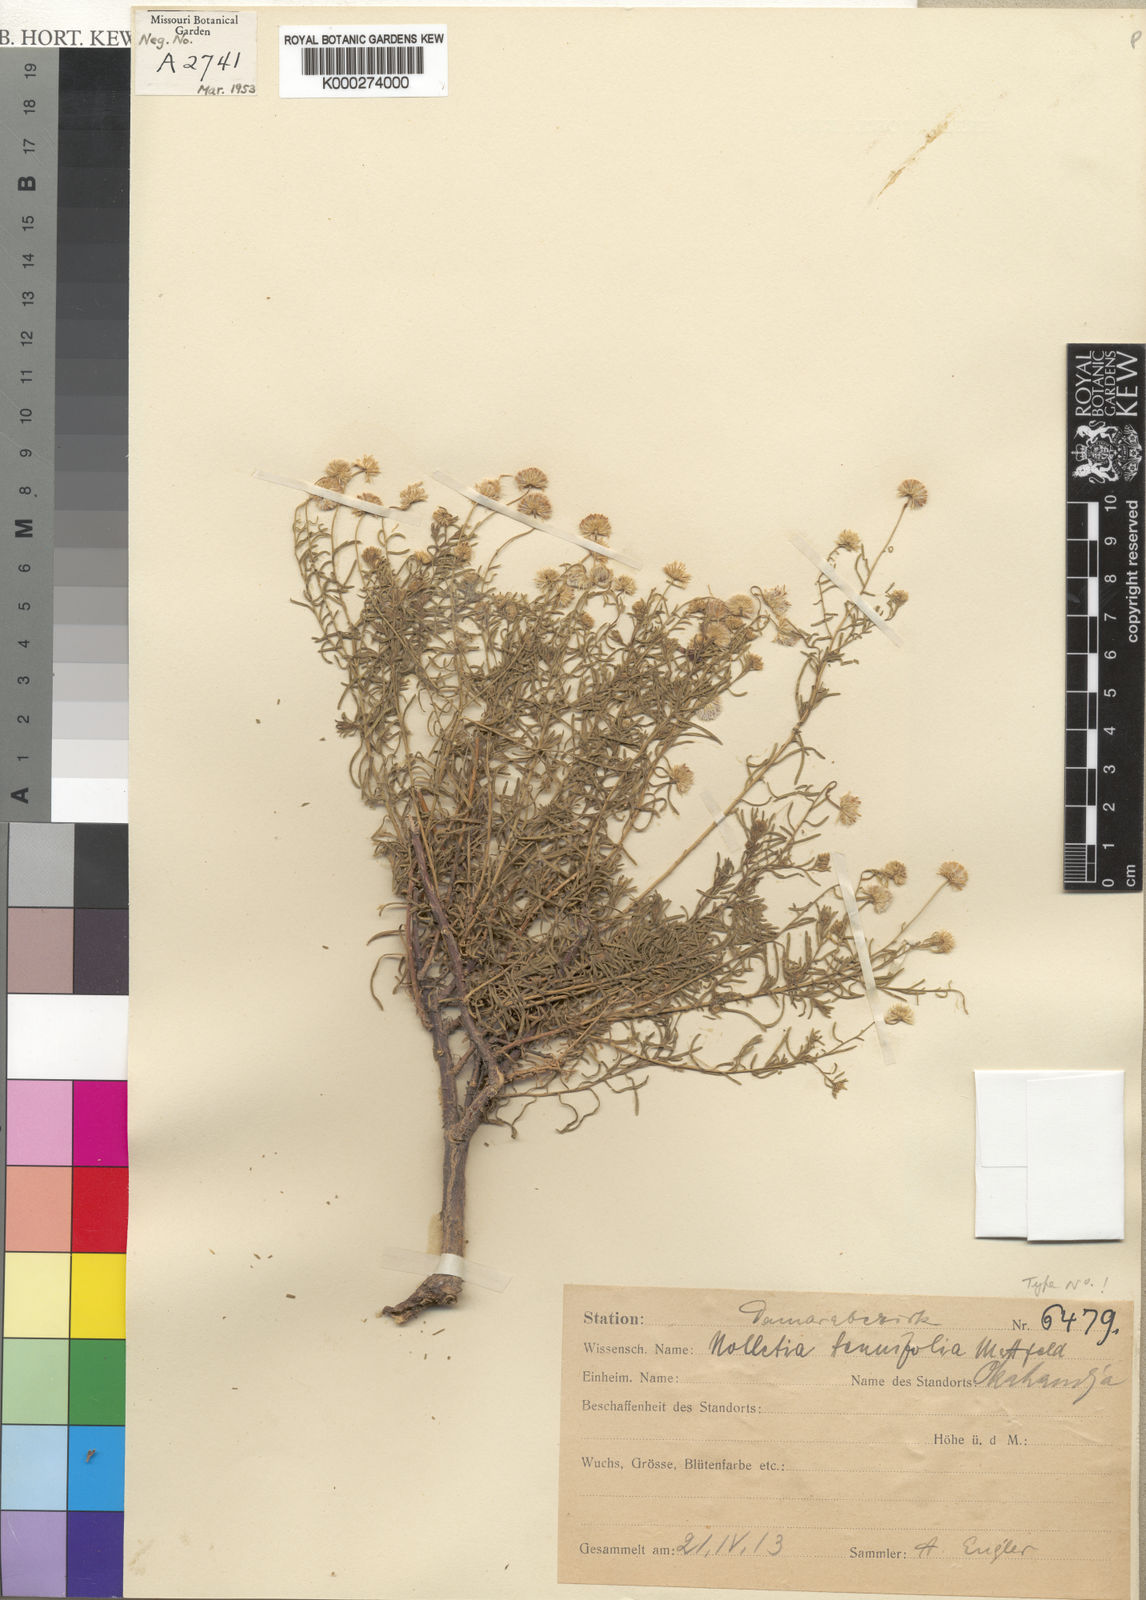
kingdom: Plantae
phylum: Tracheophyta
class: Magnoliopsida
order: Asterales
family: Asteraceae
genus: Nolletia
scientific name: Nolletia tenuifolia
